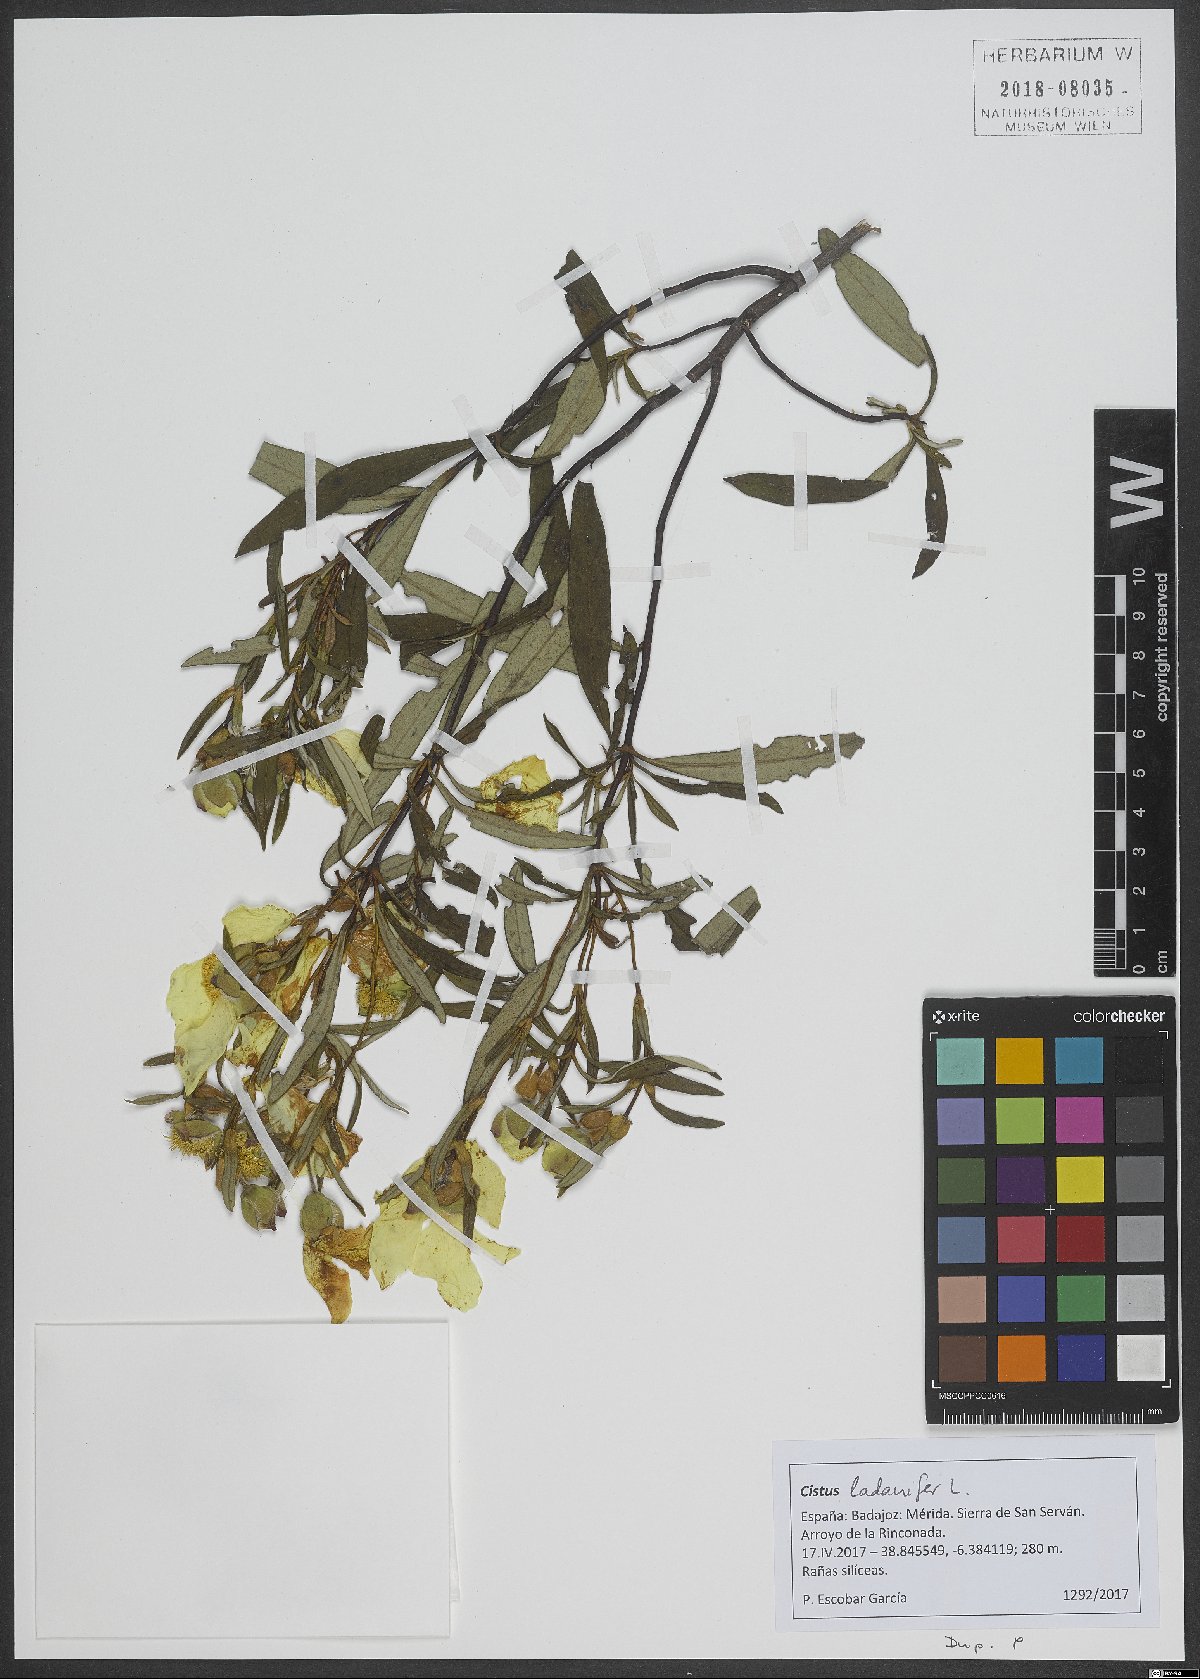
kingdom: Plantae
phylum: Tracheophyta
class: Magnoliopsida
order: Malvales
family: Cistaceae
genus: Cistus
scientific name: Cistus ladanifer
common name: Common gum cistus
